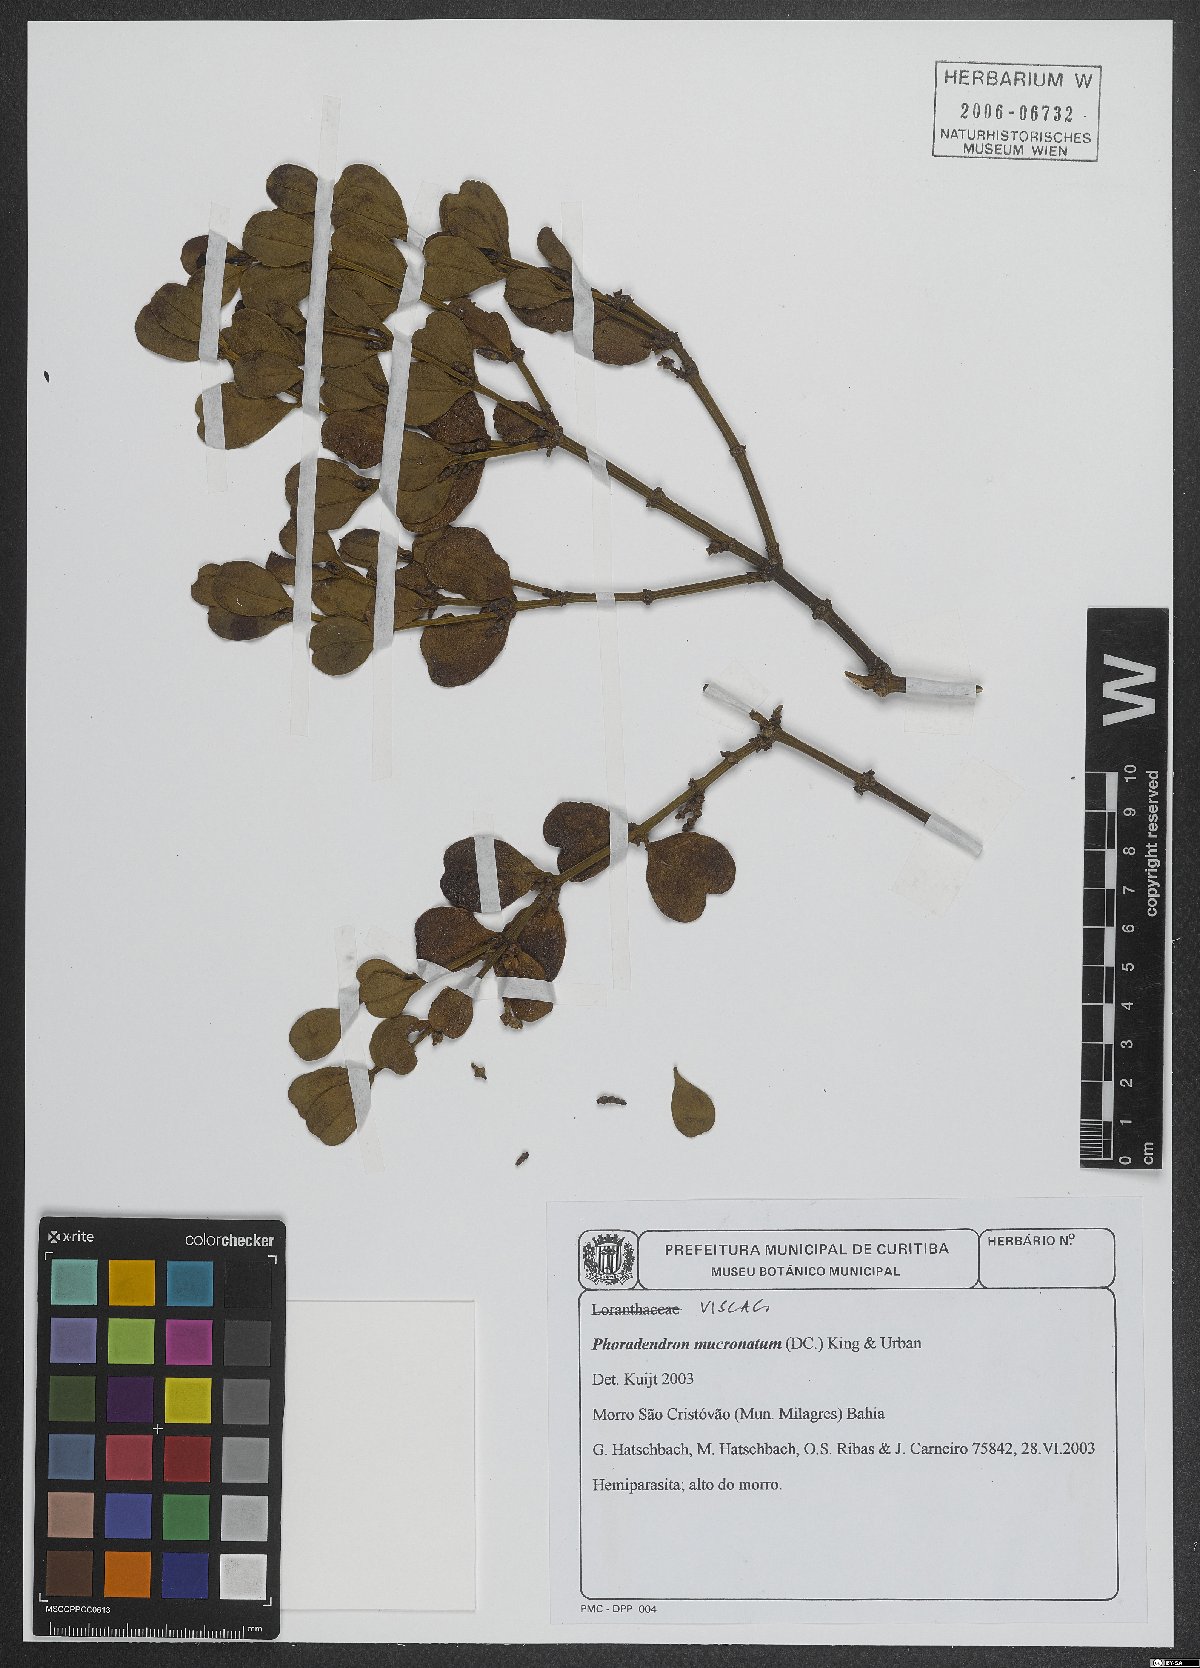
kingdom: Plantae
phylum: Tracheophyta
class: Magnoliopsida
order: Santalales
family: Viscaceae
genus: Phoradendron
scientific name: Phoradendron mucronatum
